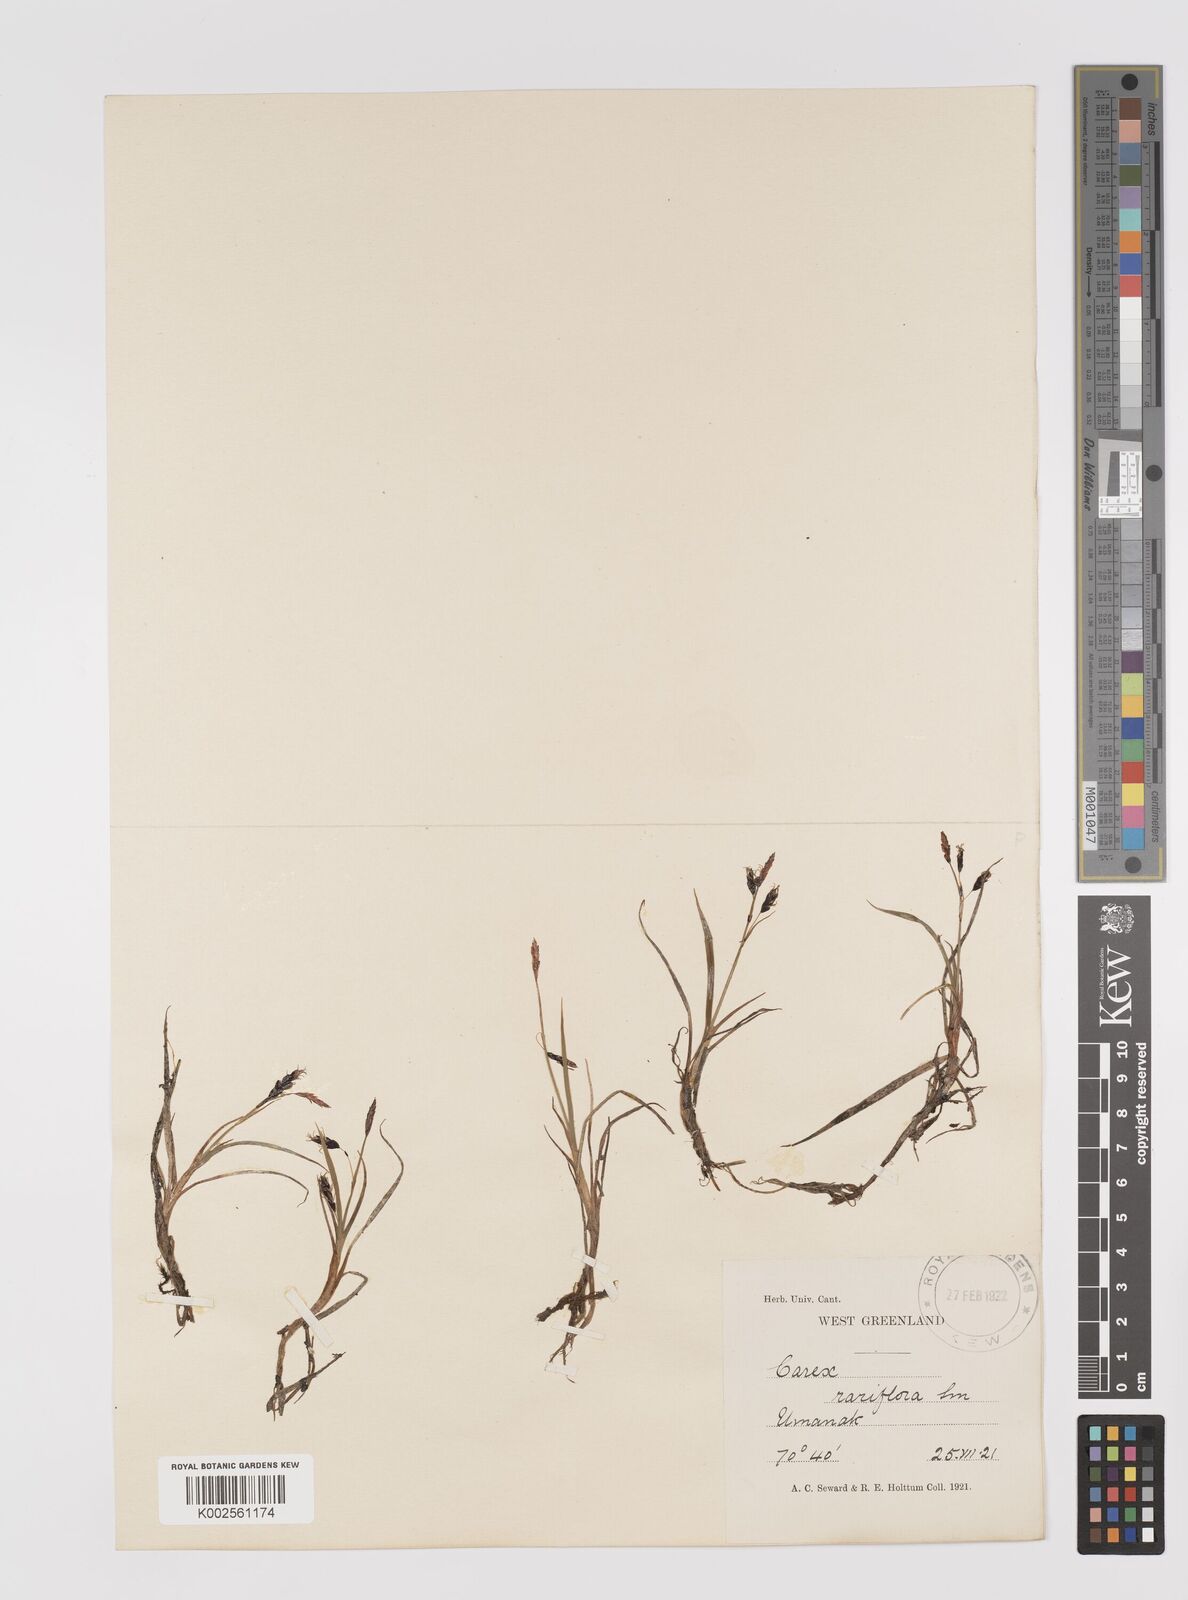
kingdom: Plantae
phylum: Tracheophyta
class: Liliopsida
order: Poales
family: Cyperaceae
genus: Carex
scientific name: Carex rariflora
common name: Loose-flowered alpine sedge
